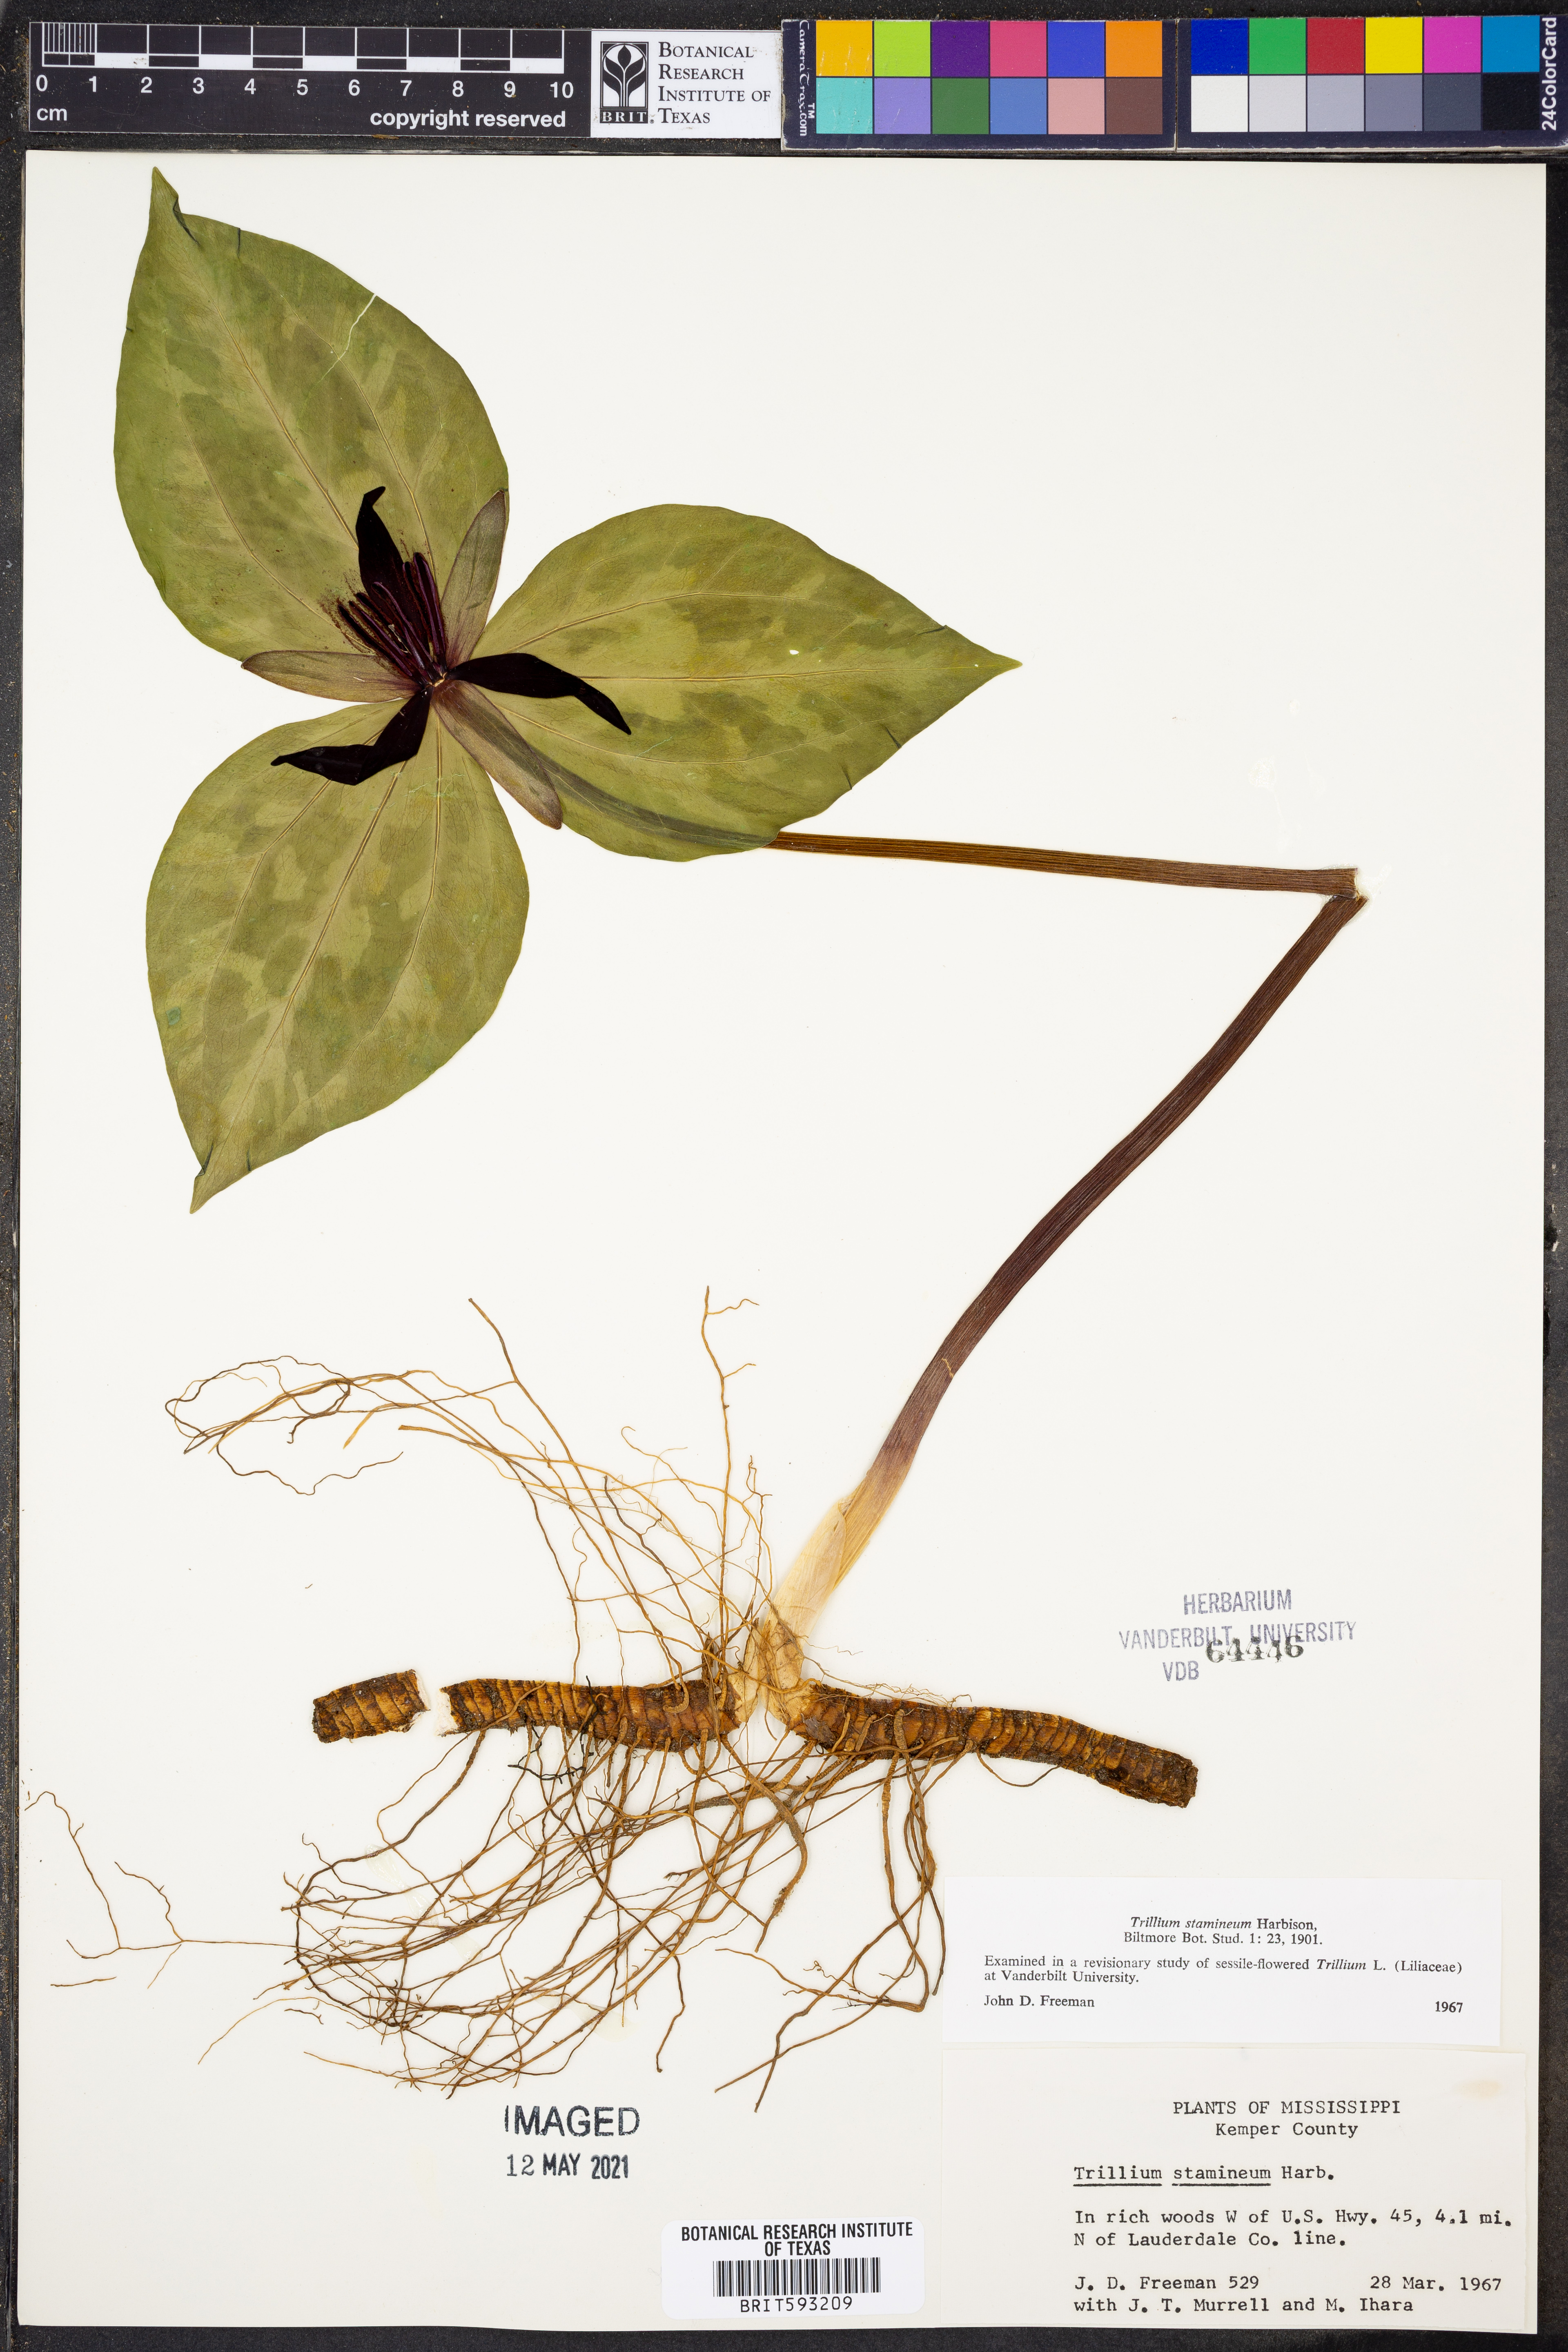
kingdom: Plantae
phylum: Tracheophyta
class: Liliopsida
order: Liliales
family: Melanthiaceae
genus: Trillium
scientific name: Trillium stamineum
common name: Blue ridge wakerobin
